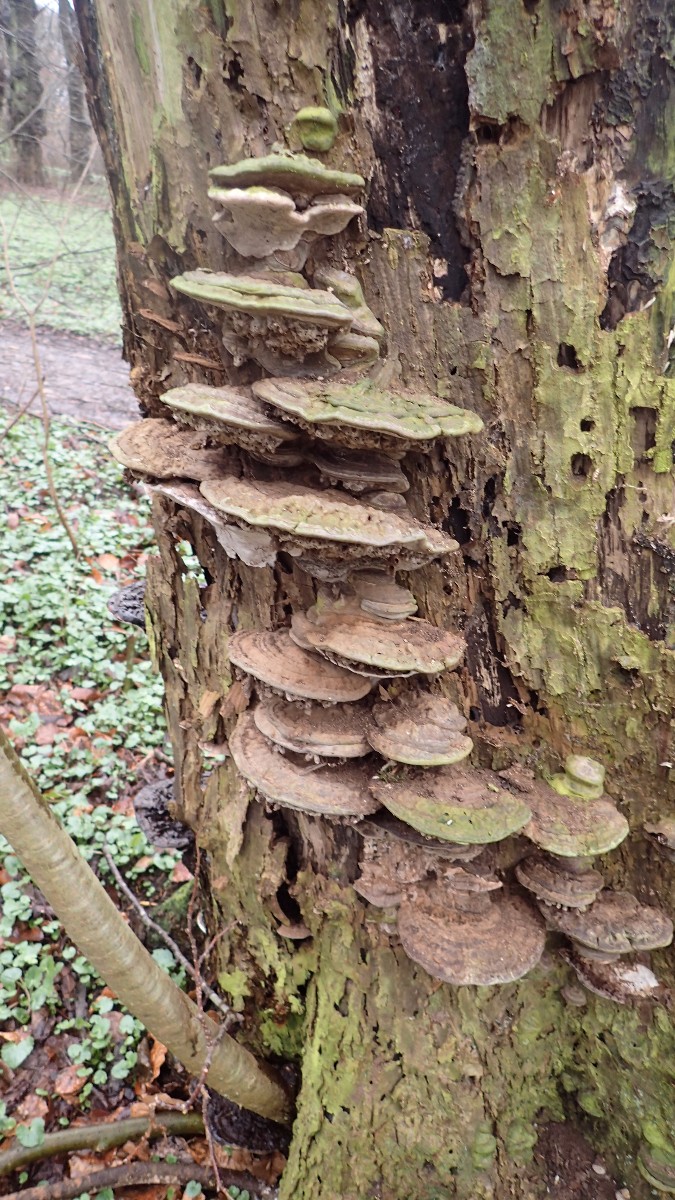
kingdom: Fungi
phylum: Basidiomycota
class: Agaricomycetes
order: Polyporales
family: Polyporaceae
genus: Ganoderma
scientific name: Ganoderma applanatum
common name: flad lakporesvamp
